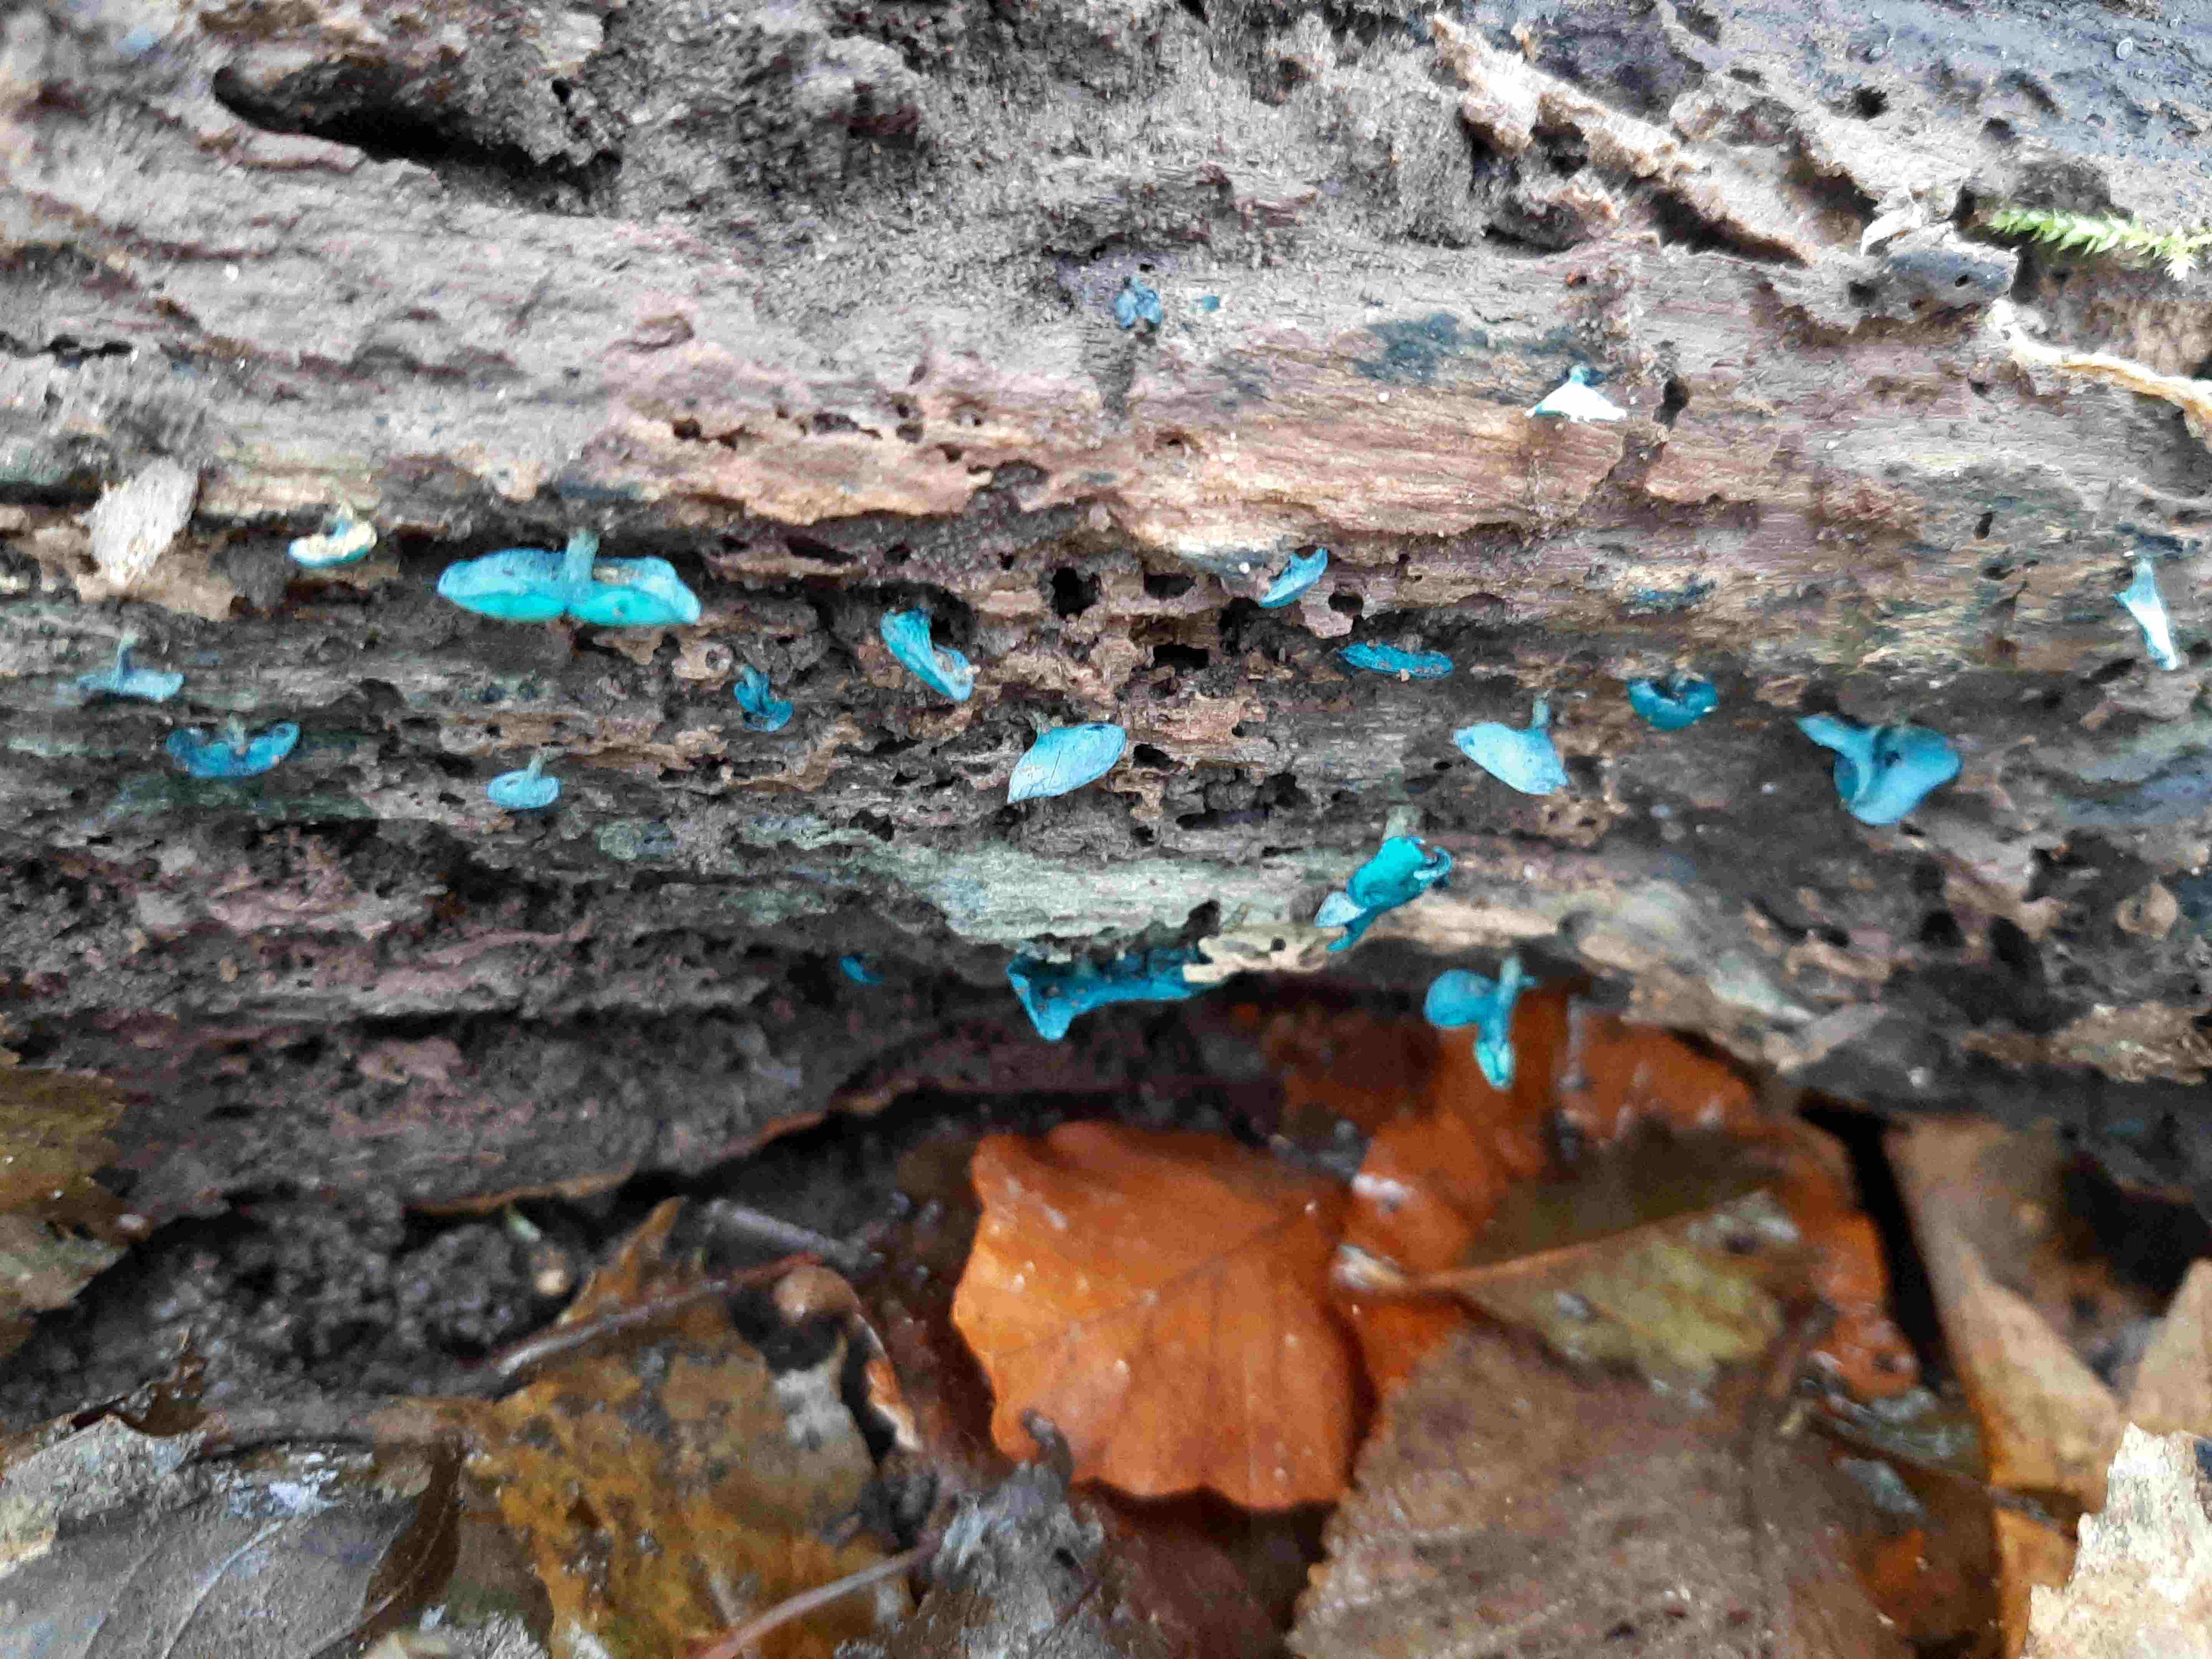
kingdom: Fungi
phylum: Ascomycota
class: Leotiomycetes
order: Helotiales
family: Chlorociboriaceae
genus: Chlorociboria
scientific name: Chlorociboria aeruginascens
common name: almindelig grønskive
